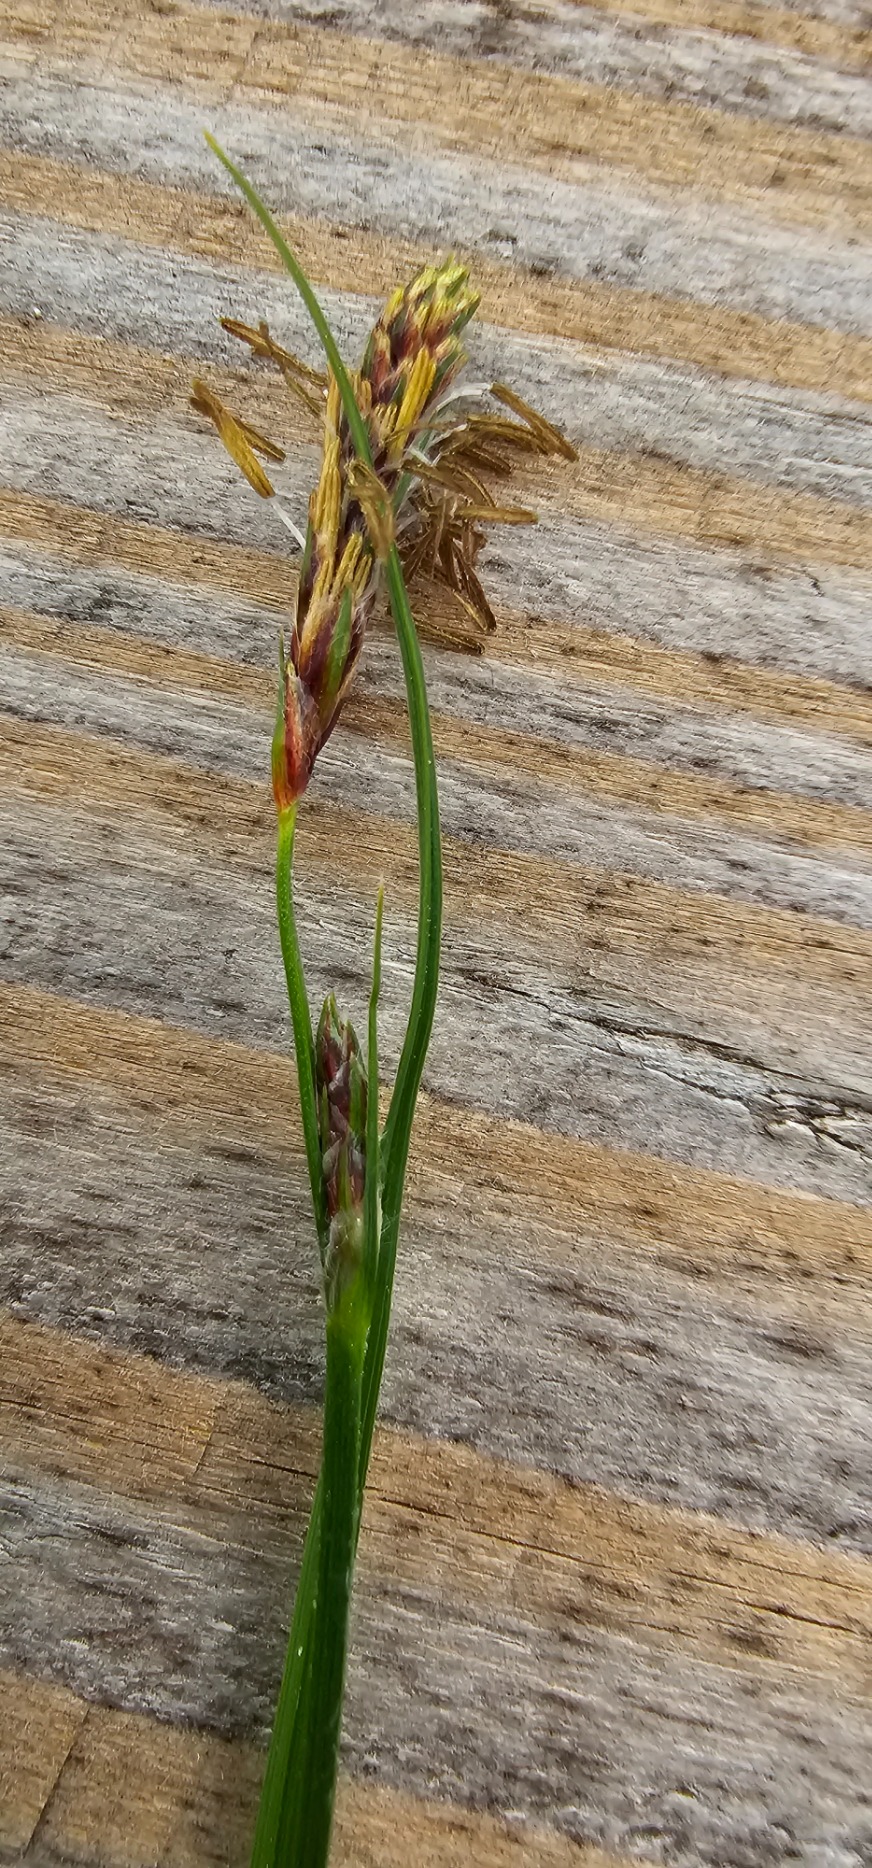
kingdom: Plantae
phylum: Tracheophyta
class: Liliopsida
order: Poales
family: Cyperaceae
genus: Carex
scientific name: Carex hirta
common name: Håret star
